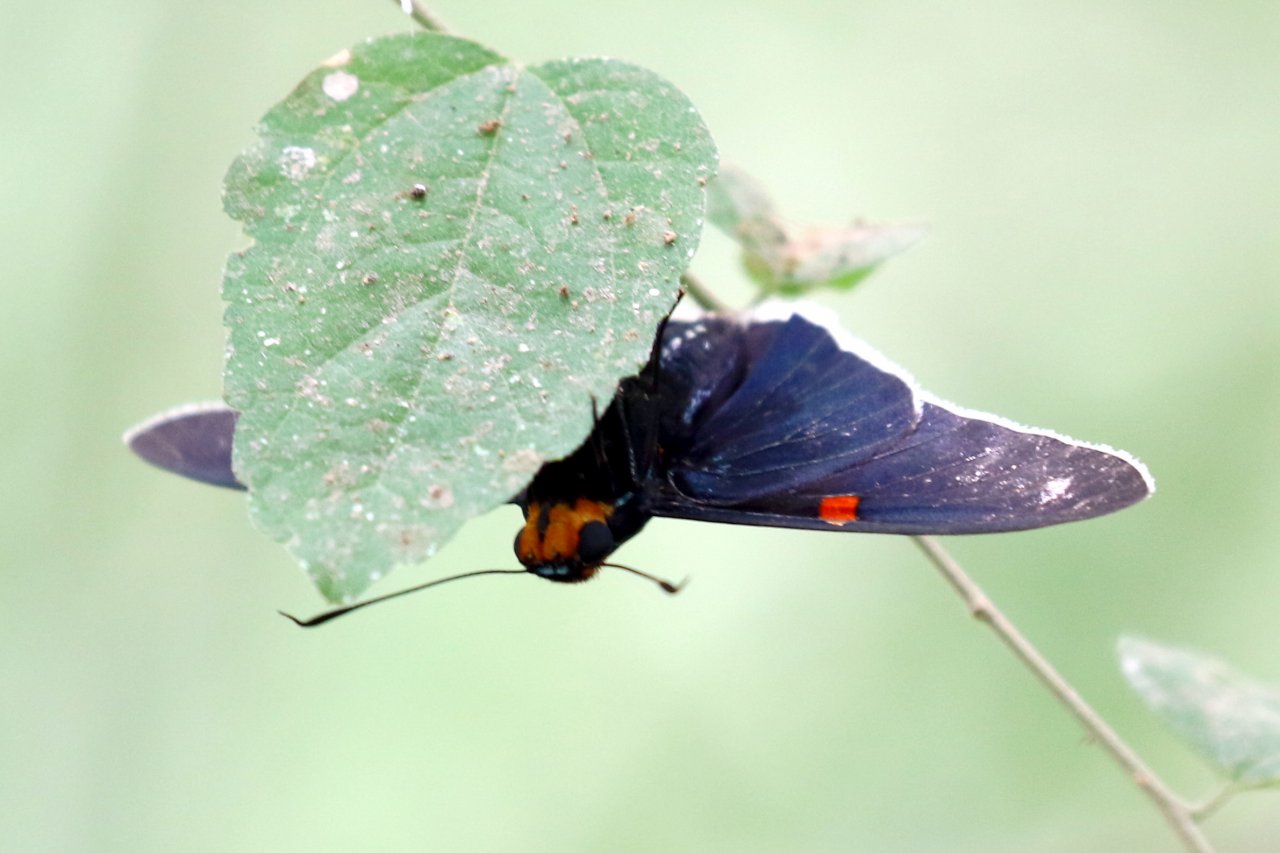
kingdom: Animalia
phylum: Arthropoda
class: Insecta
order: Lepidoptera
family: Hesperiidae
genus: Phocides
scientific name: Phocides polybius
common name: Guava Skipper
